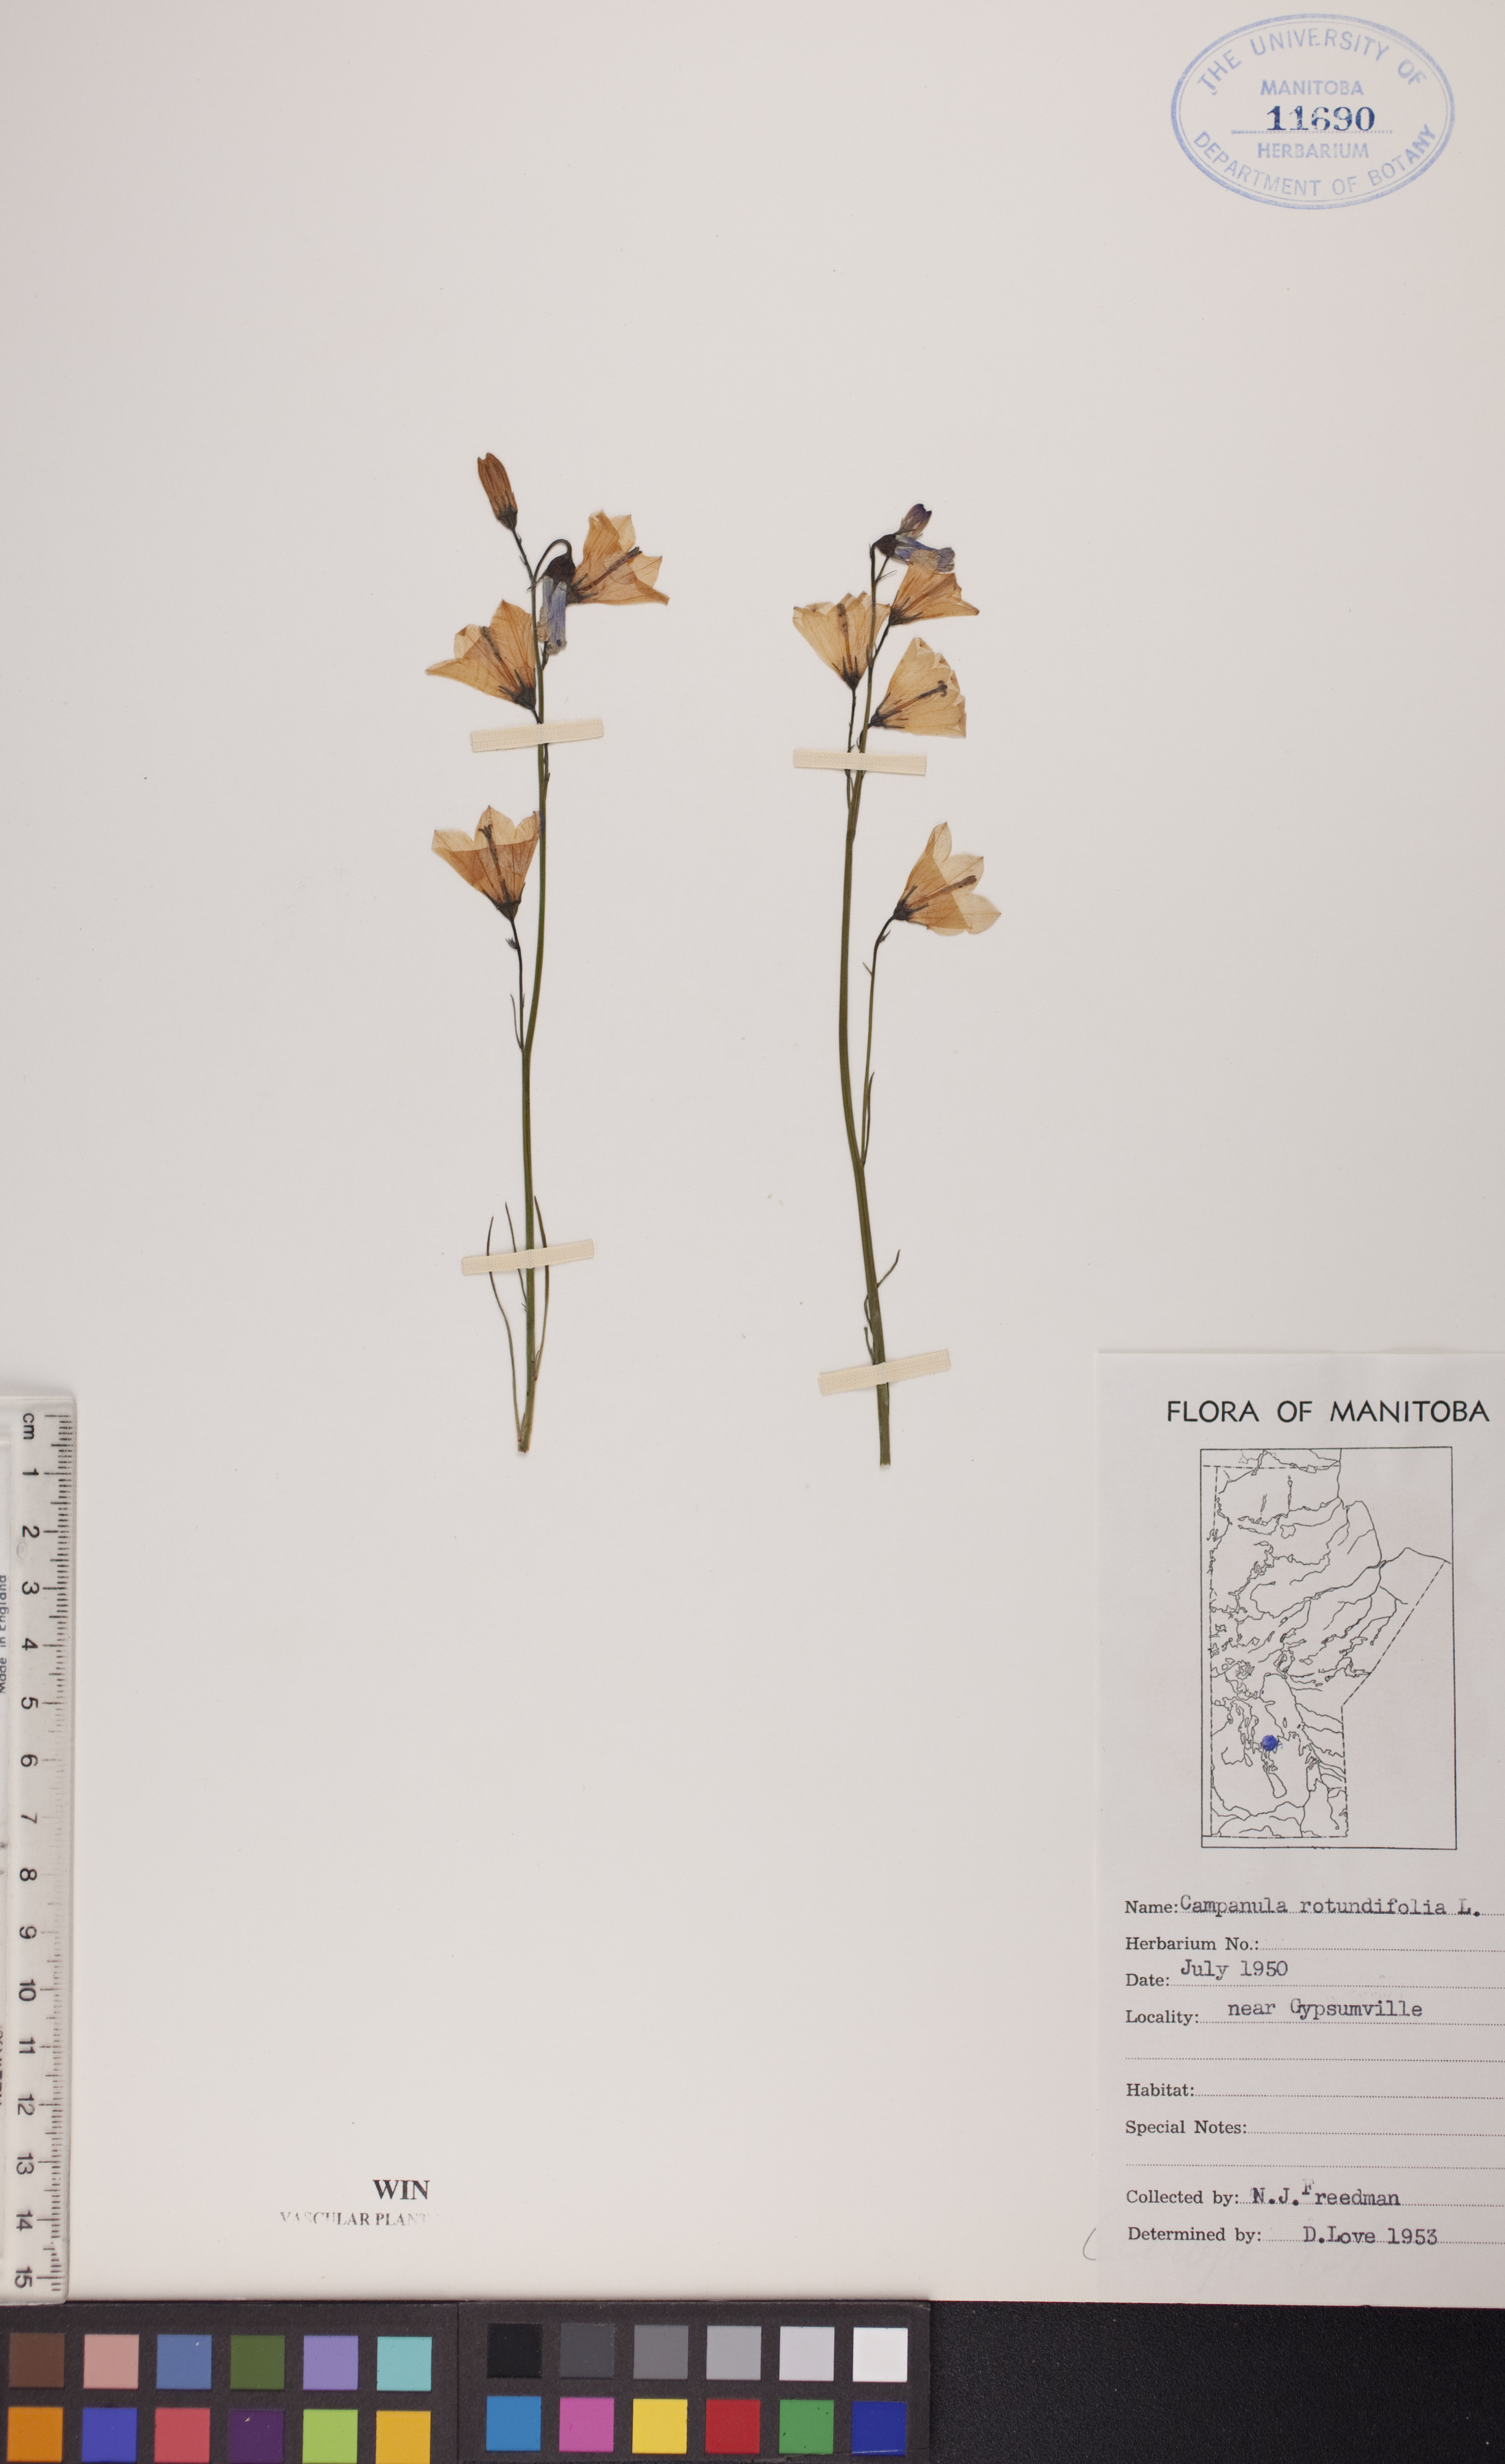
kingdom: Plantae
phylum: Tracheophyta
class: Magnoliopsida
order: Asterales
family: Campanulaceae
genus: Campanula
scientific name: Campanula rotundifolia
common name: Harebell
